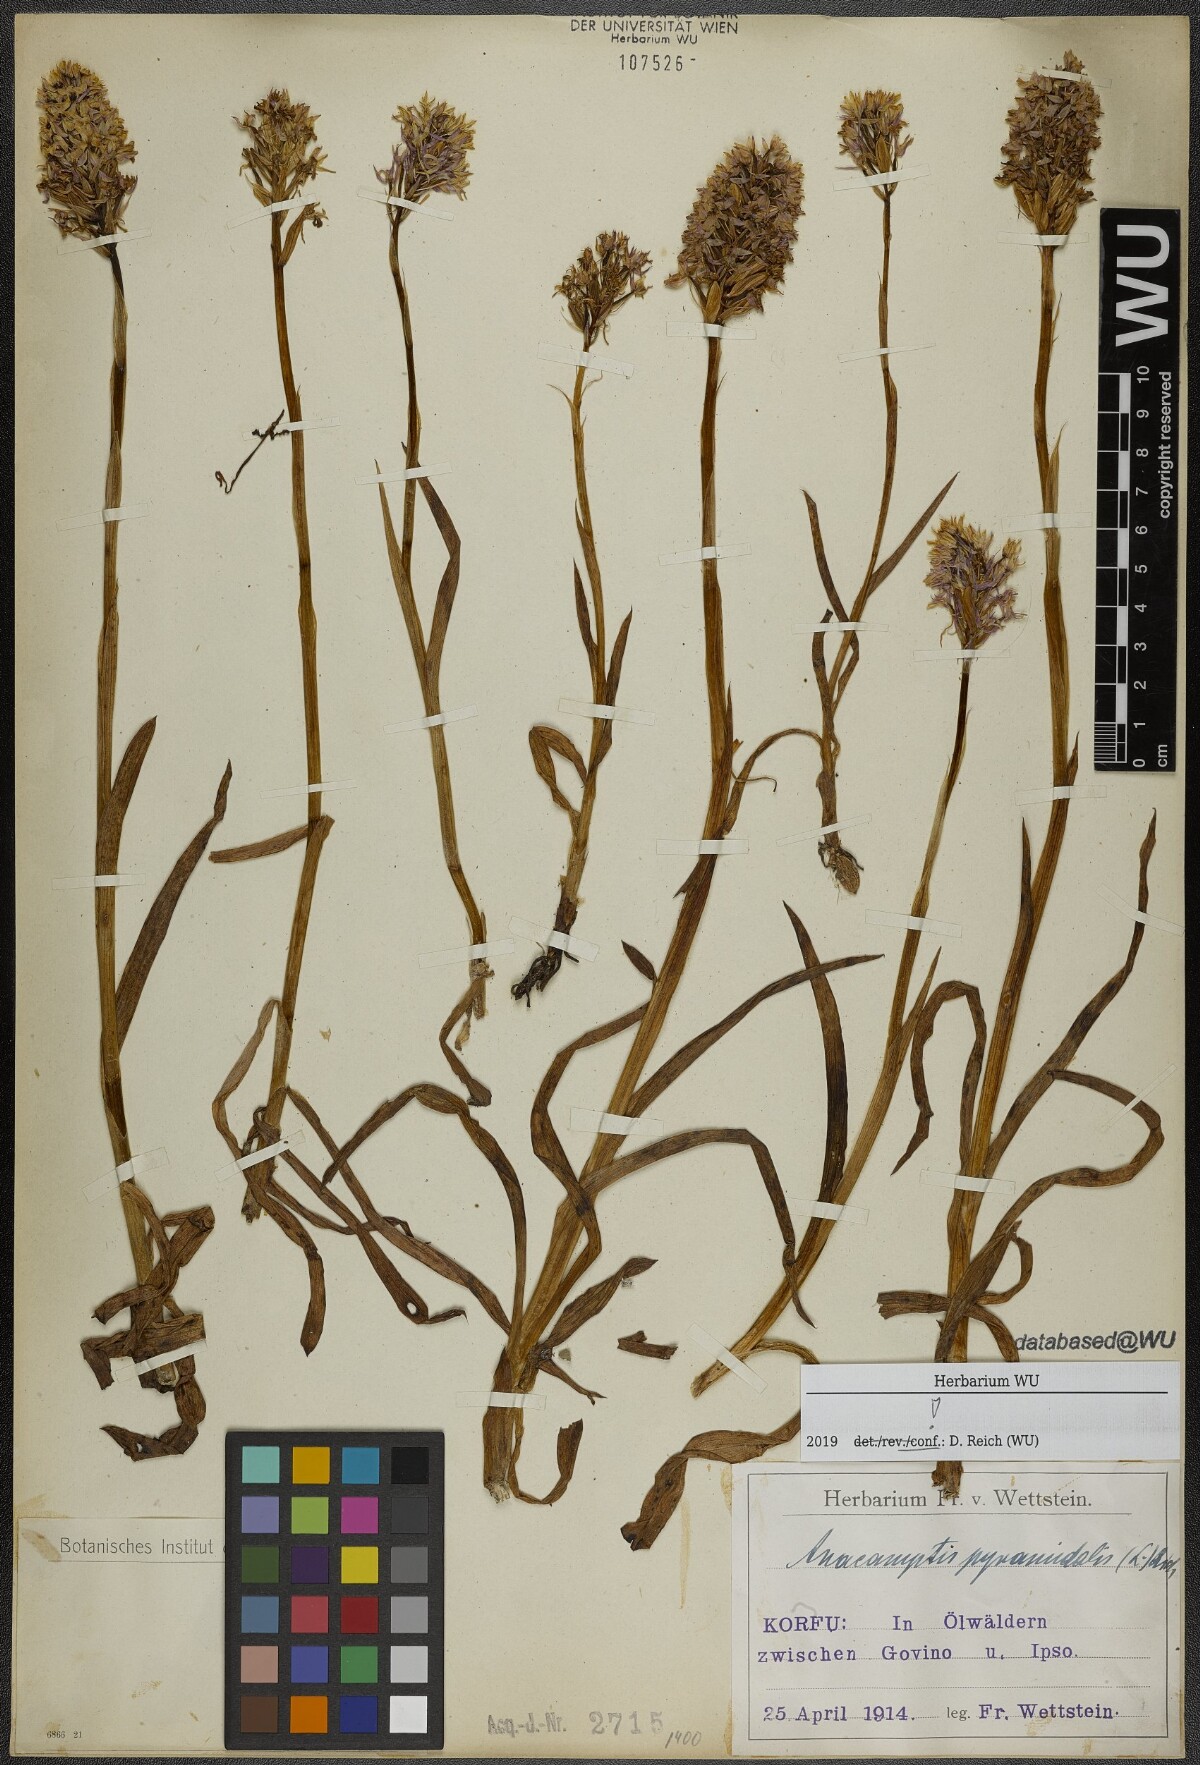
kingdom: Plantae
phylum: Tracheophyta
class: Liliopsida
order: Asparagales
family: Orchidaceae
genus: Anacamptis
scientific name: Anacamptis pyramidalis
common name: Pyramidal orchid
